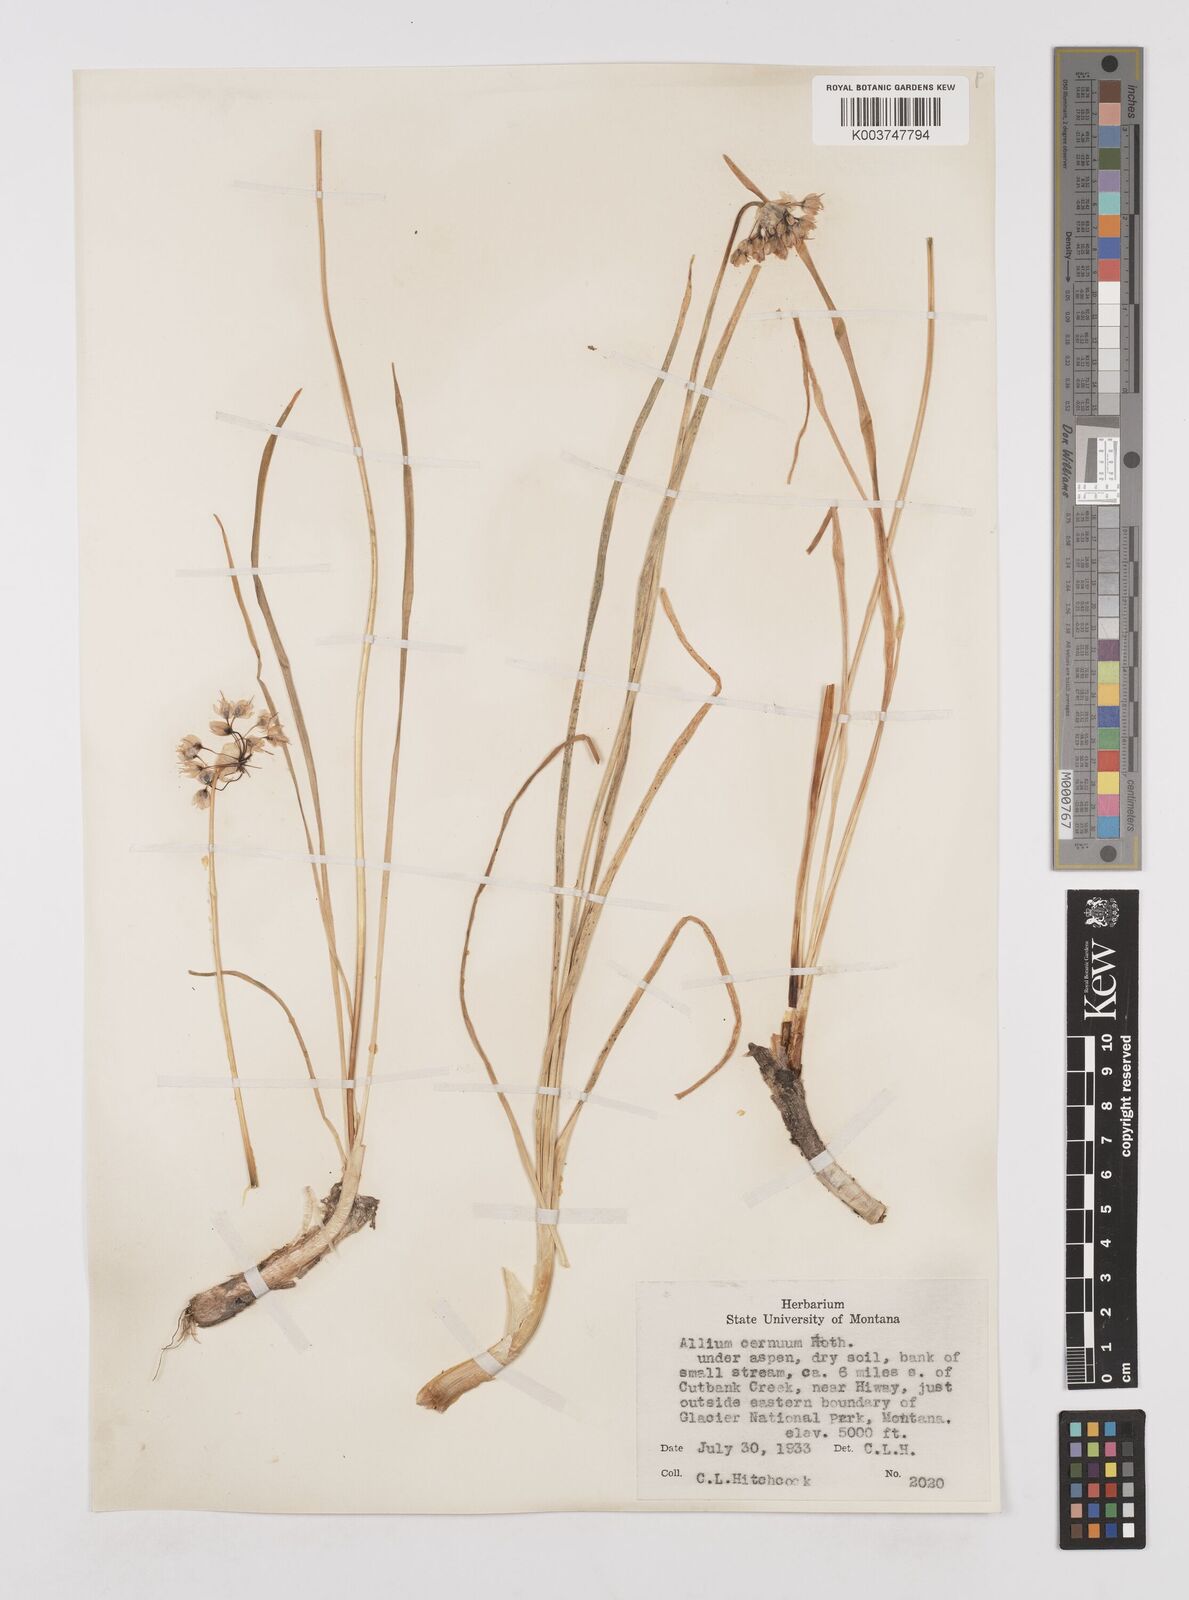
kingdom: Plantae
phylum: Tracheophyta
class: Liliopsida
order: Asparagales
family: Amaryllidaceae
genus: Allium
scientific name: Allium cernuum
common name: Nodding onion
